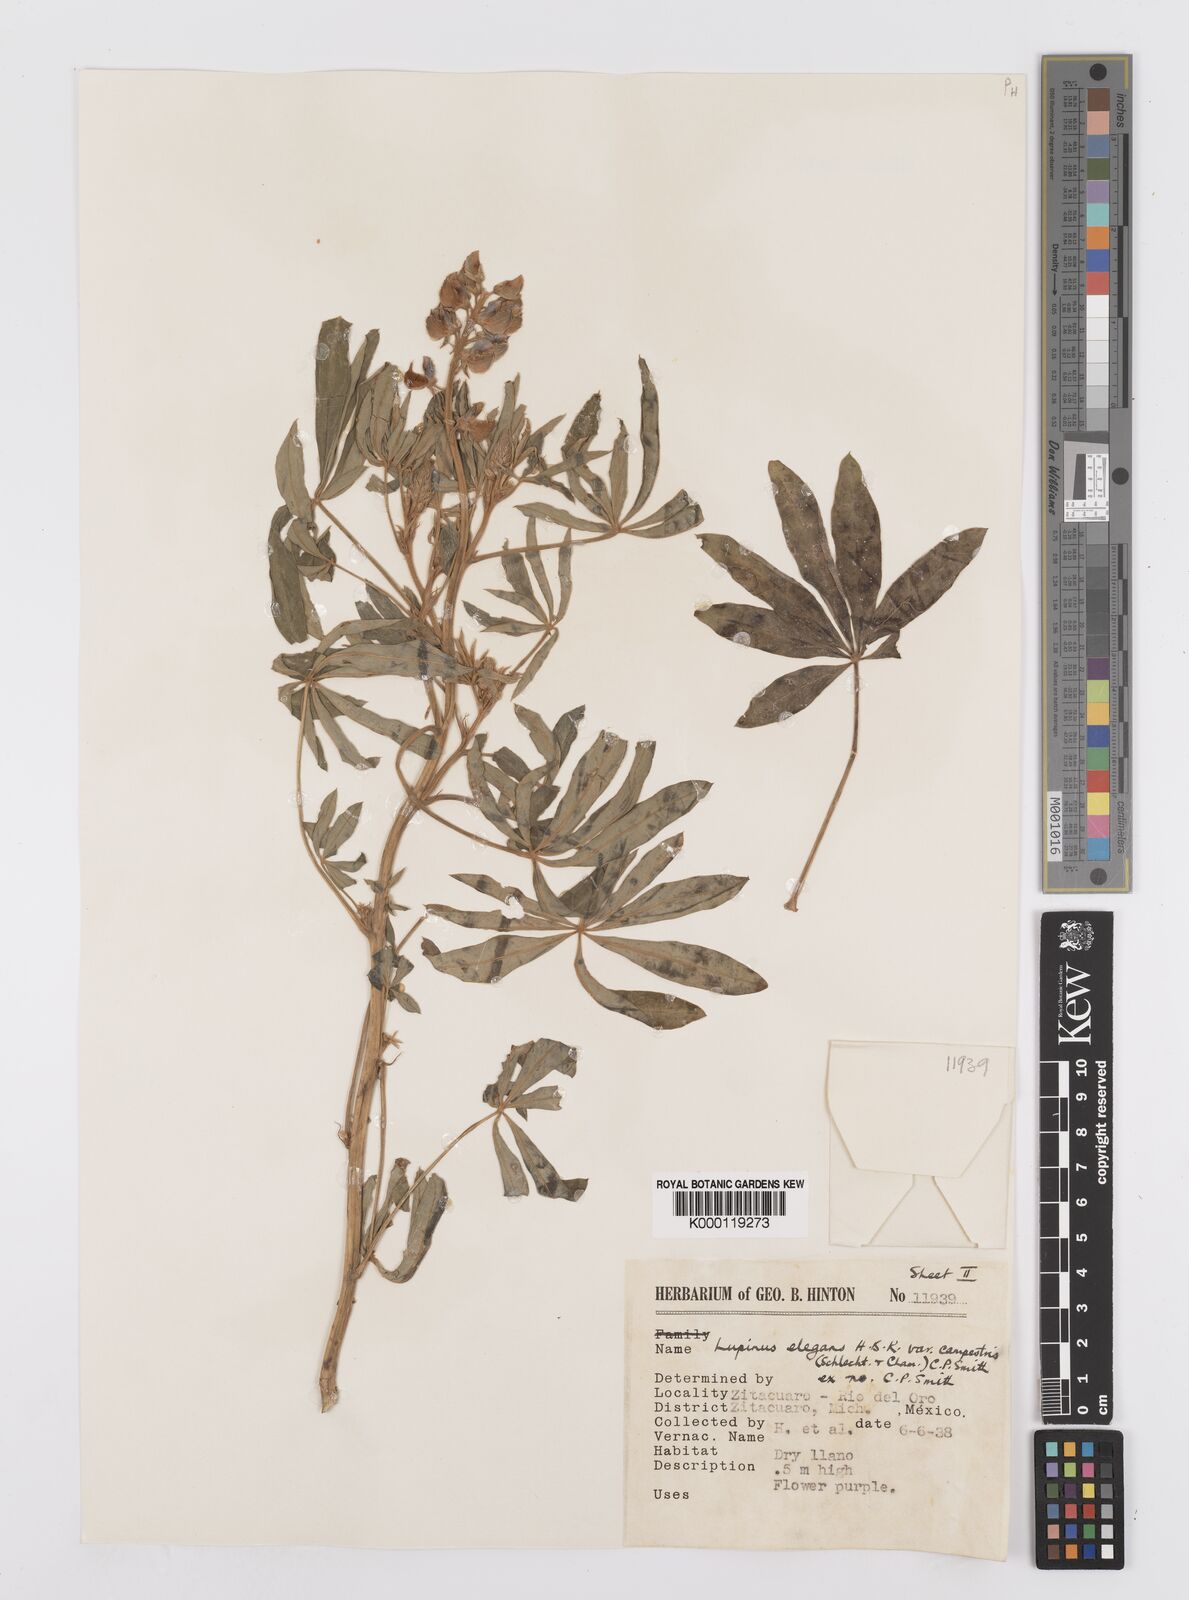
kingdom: Plantae
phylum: Tracheophyta
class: Magnoliopsida
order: Fabales
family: Fabaceae
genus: Lupinus
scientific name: Lupinus elegans
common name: Mexican lupine
